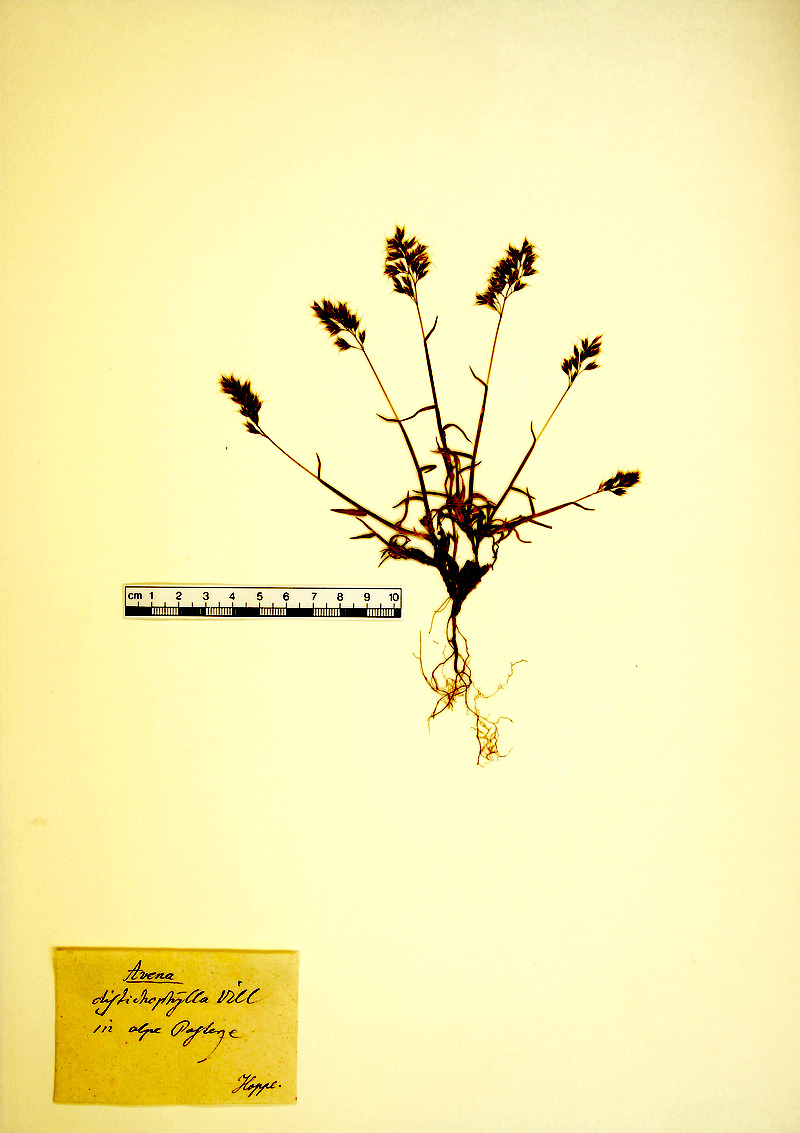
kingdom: Plantae
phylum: Tracheophyta
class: Liliopsida
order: Poales
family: Poaceae
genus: Acrospelion
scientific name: Acrospelion distichophyllum
